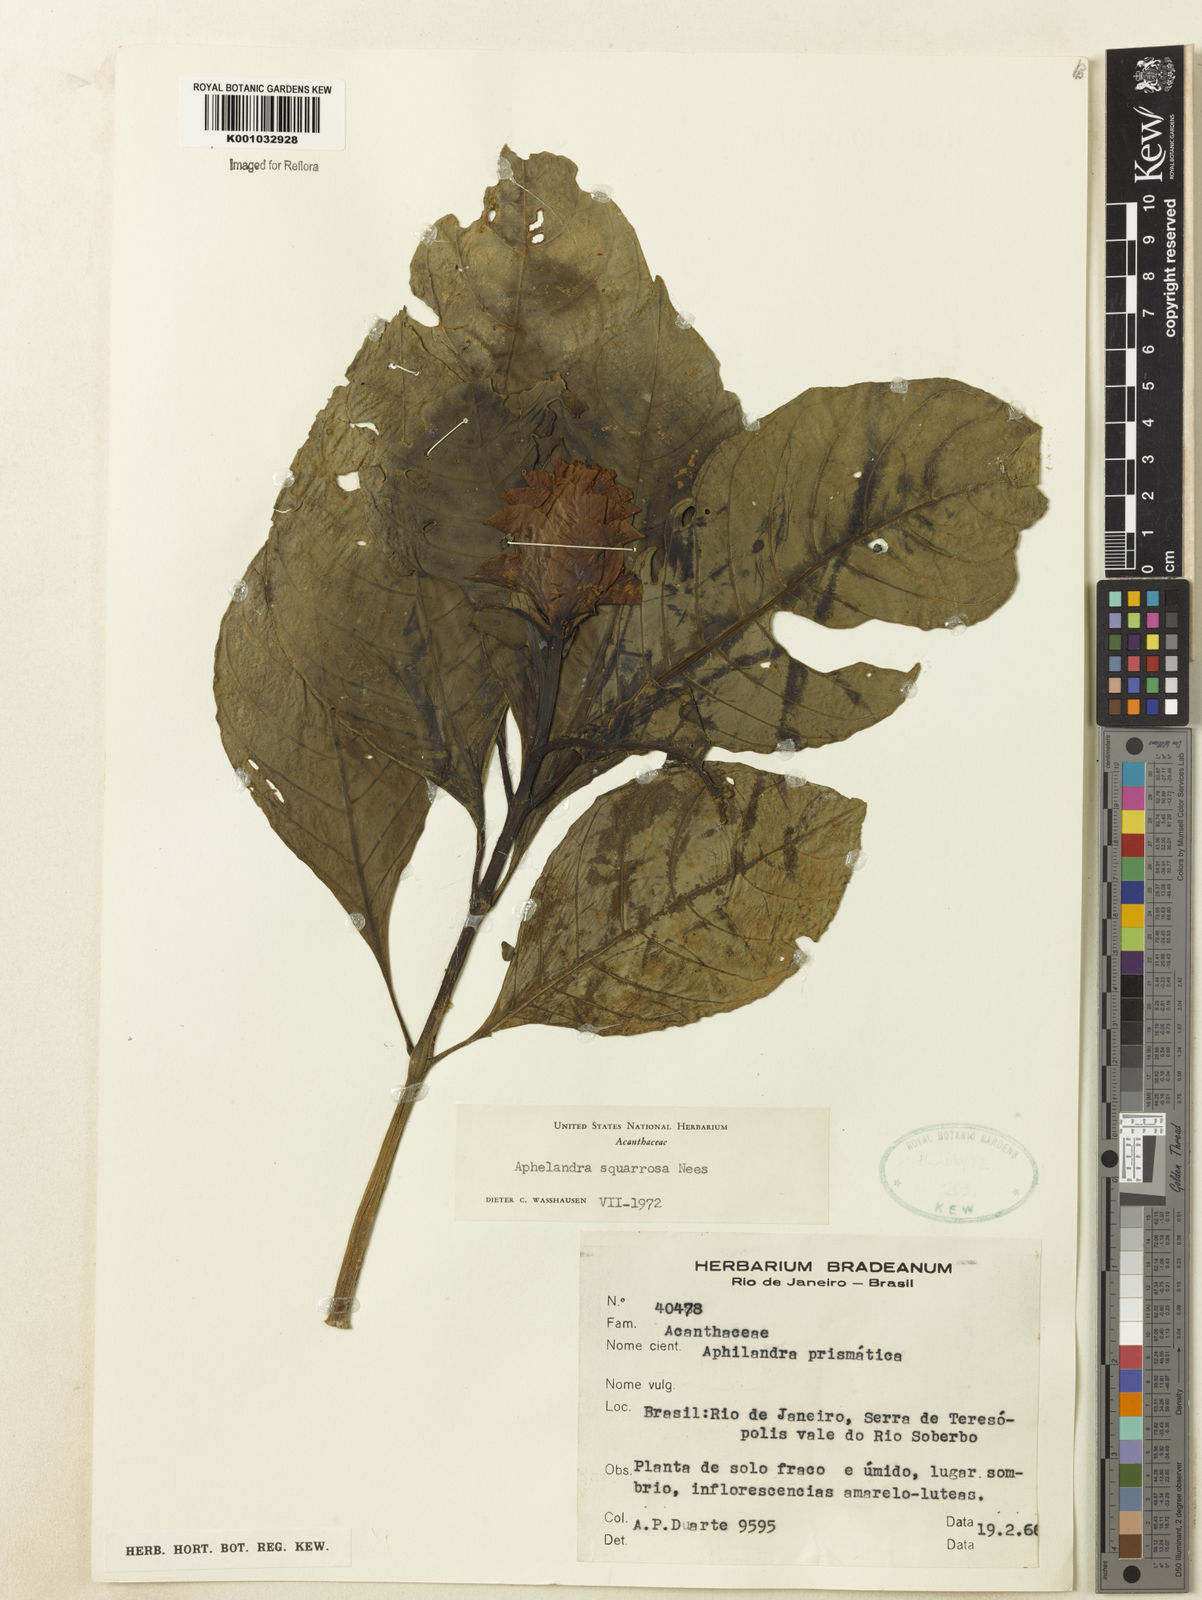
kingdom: Plantae
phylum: Tracheophyta
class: Magnoliopsida
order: Lamiales
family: Acanthaceae
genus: Aphelandra
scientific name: Aphelandra squarrosa
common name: Saffron spike
